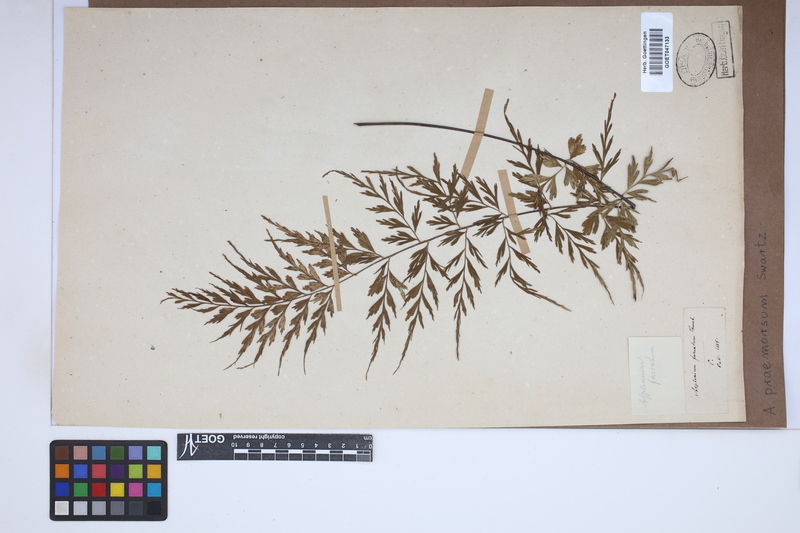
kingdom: Plantae
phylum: Tracheophyta
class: Polypodiopsida
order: Polypodiales
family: Aspleniaceae
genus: Asplenium
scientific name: Asplenium praemorsum
